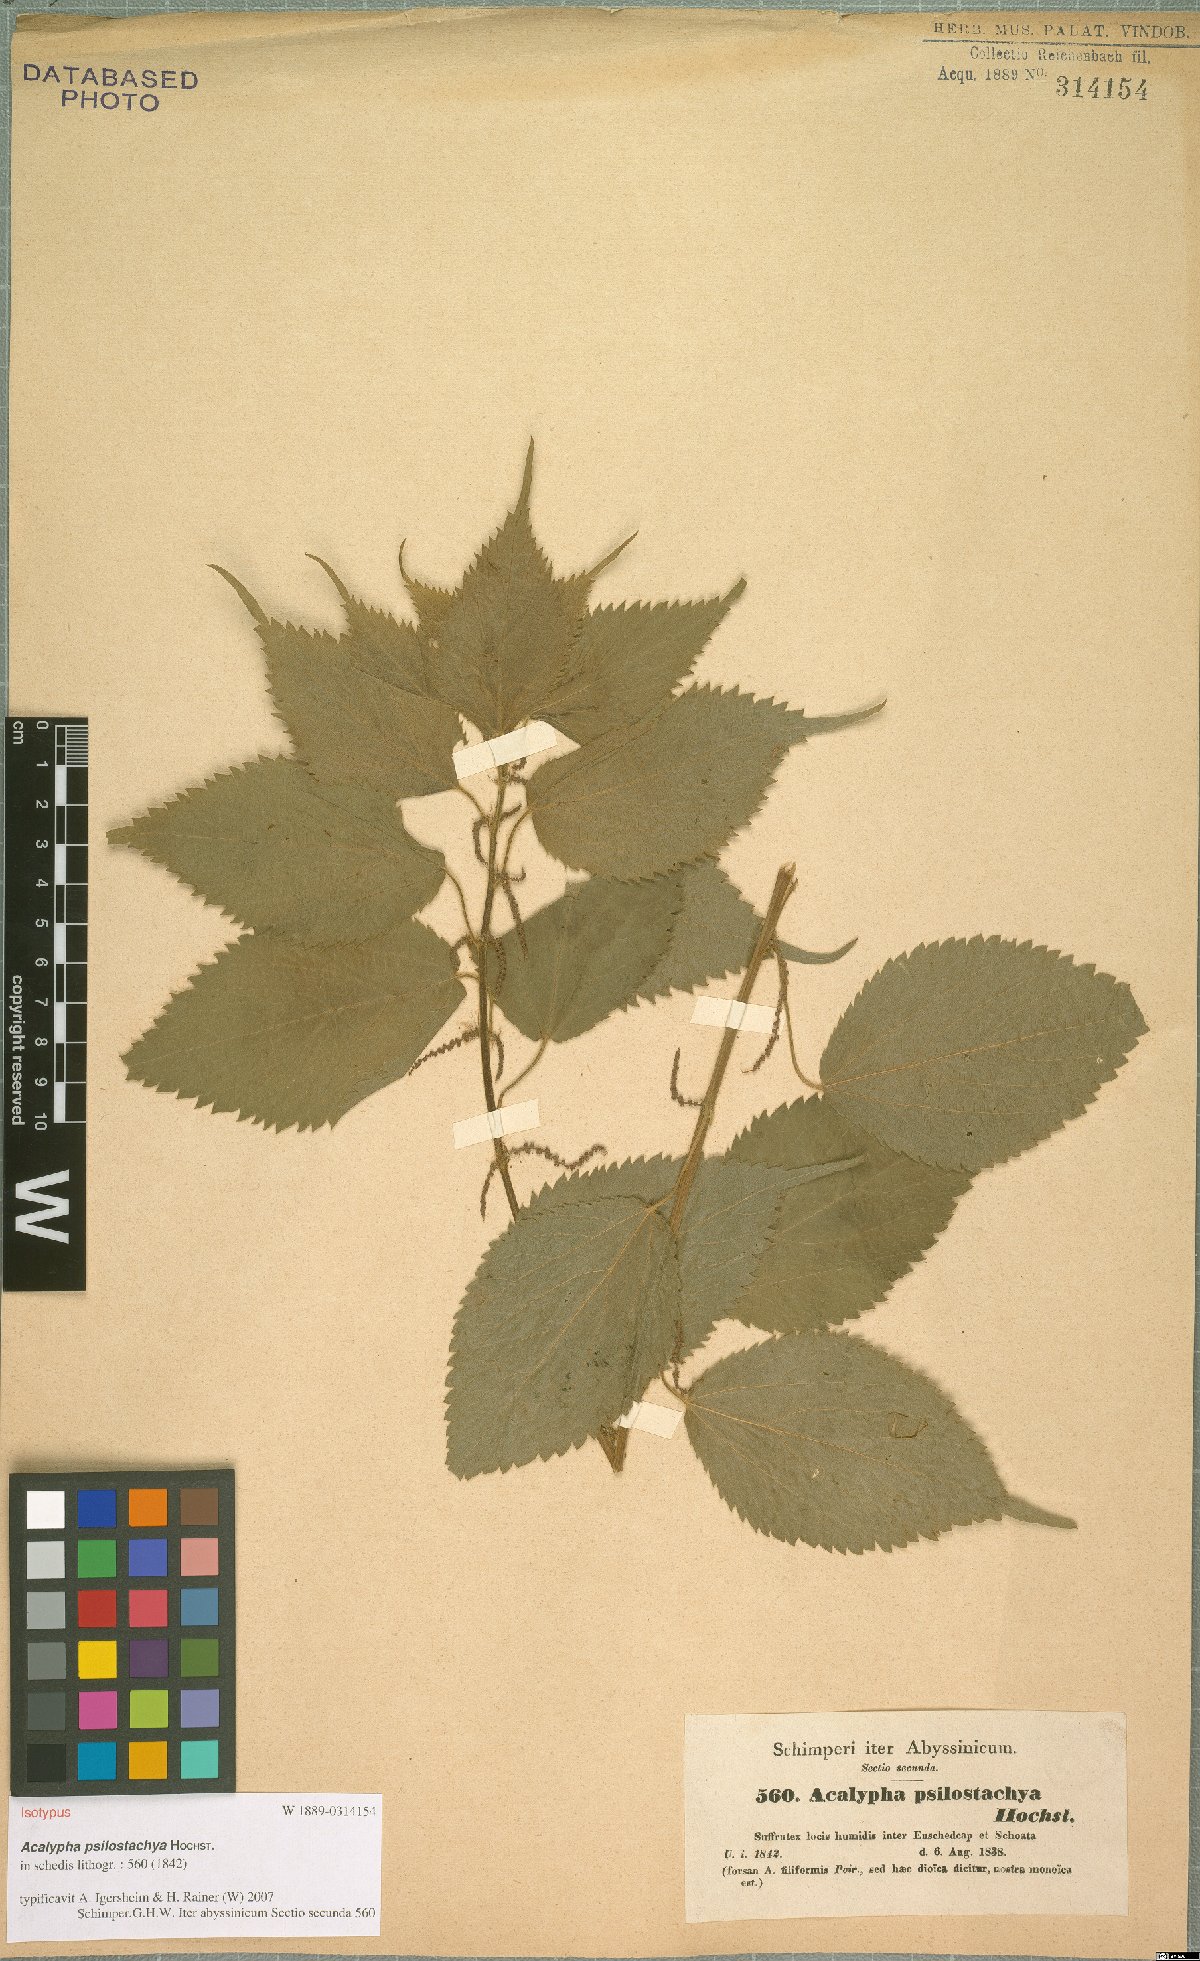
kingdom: Plantae
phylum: Tracheophyta
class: Magnoliopsida
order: Malpighiales
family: Euphorbiaceae
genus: Acalypha
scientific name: Acalypha psilostachya
